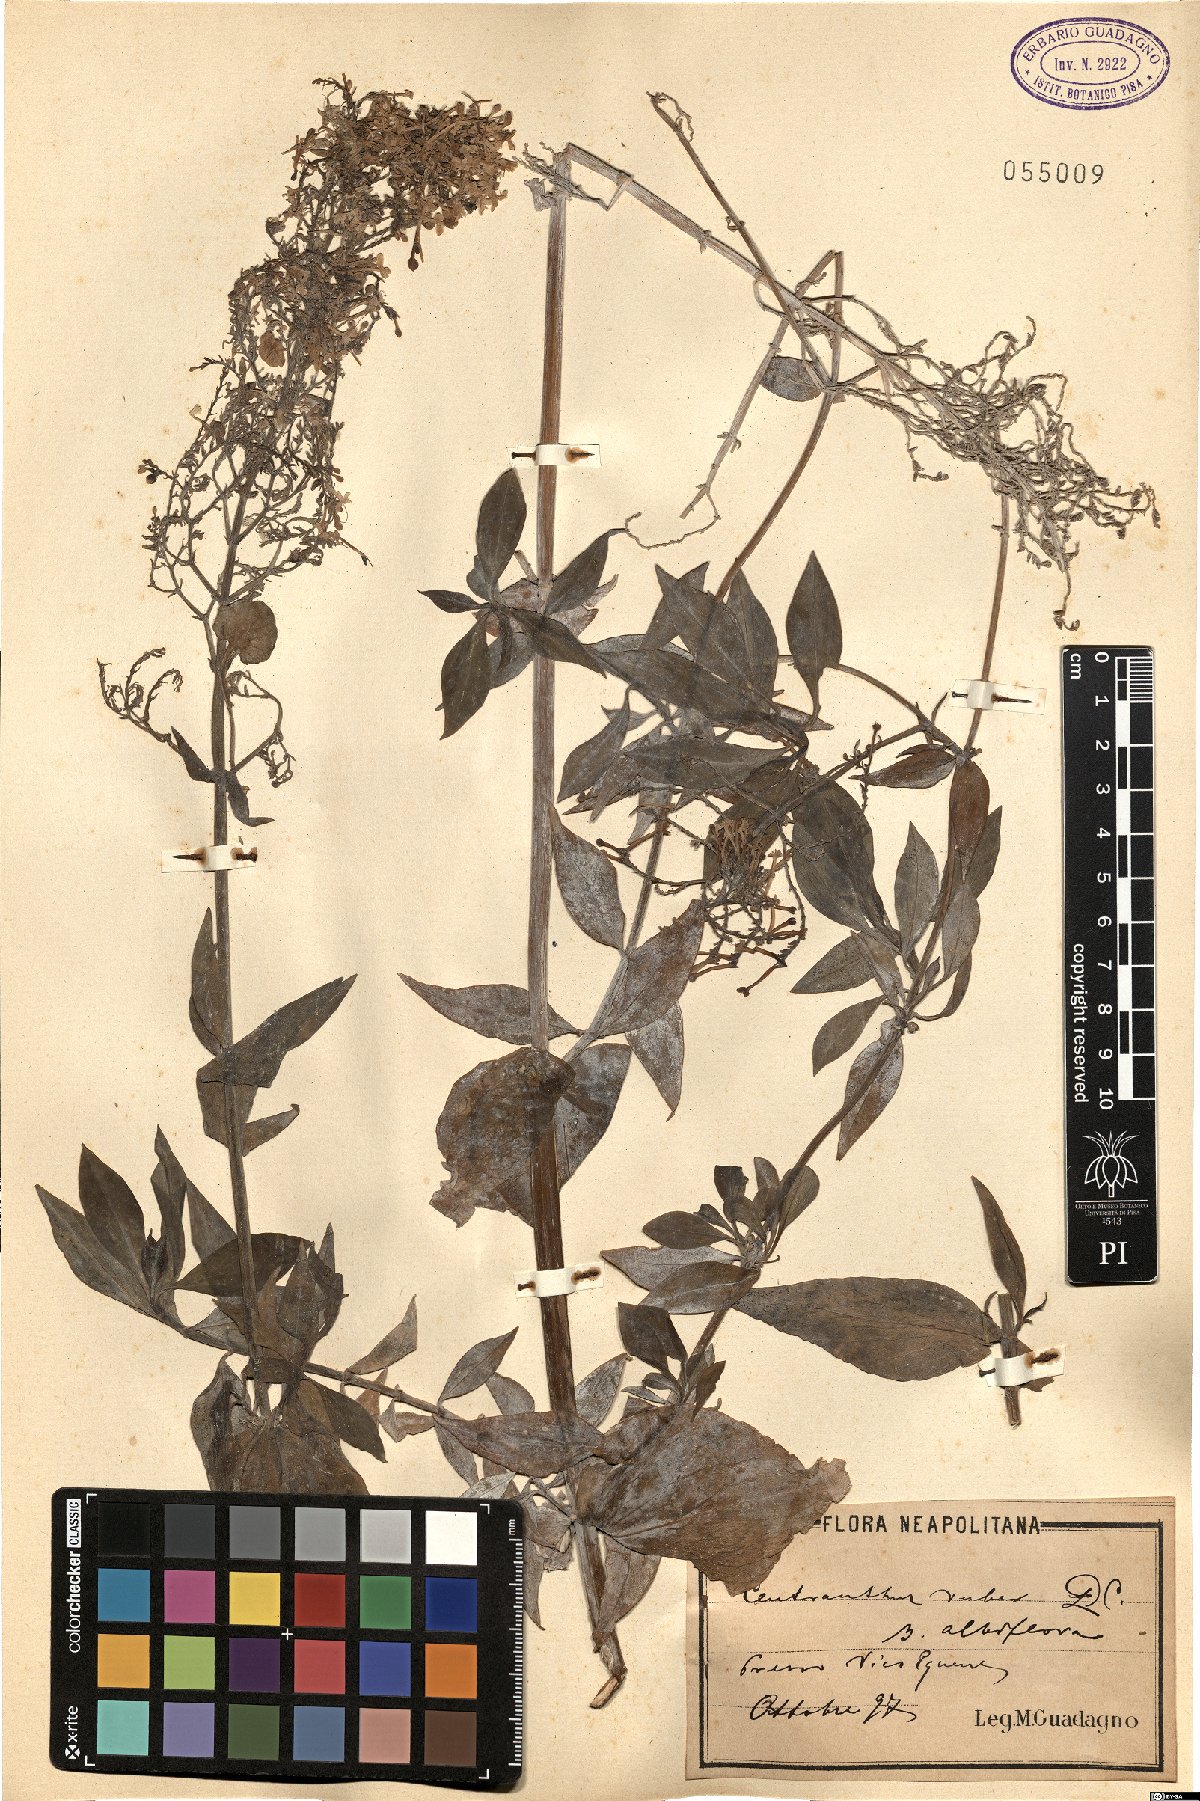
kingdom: Plantae
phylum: Tracheophyta
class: Magnoliopsida
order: Dipsacales
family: Caprifoliaceae
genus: Centranthus
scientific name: Centranthus ruber
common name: Red valerian
